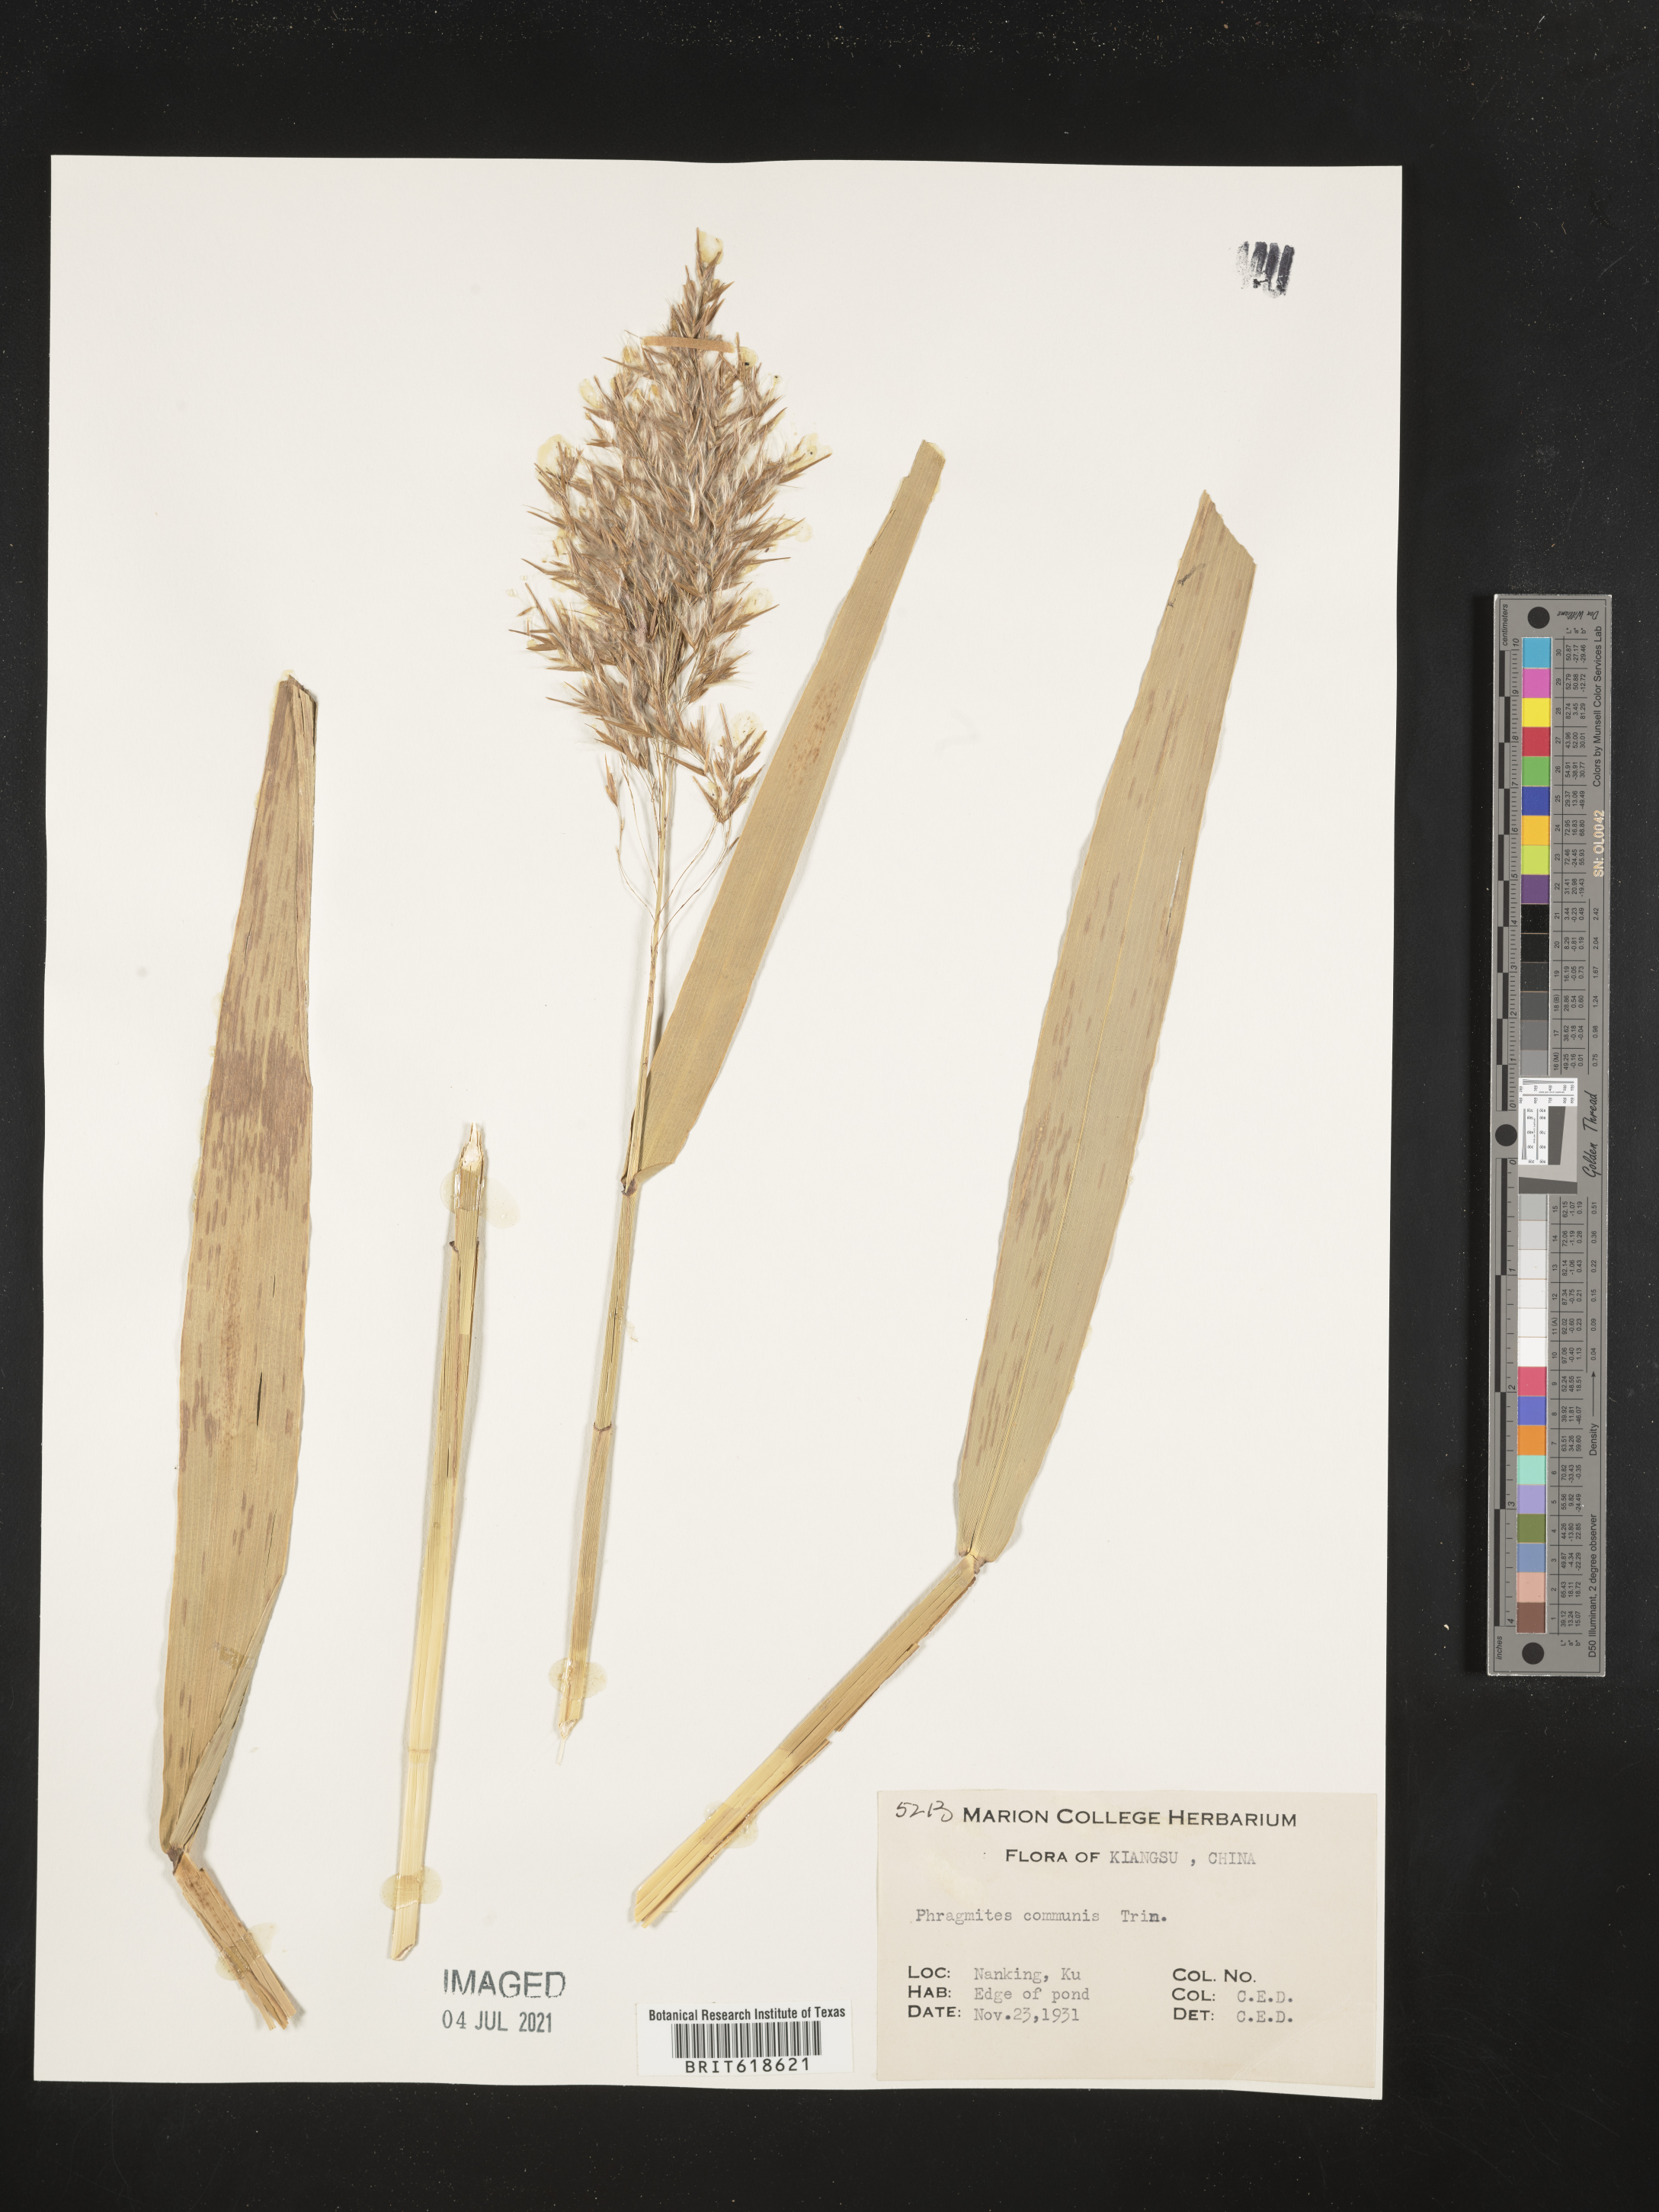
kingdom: Plantae
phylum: Tracheophyta
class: Liliopsida
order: Poales
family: Poaceae
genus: Phragmites
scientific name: Phragmites australis
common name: Common reed
